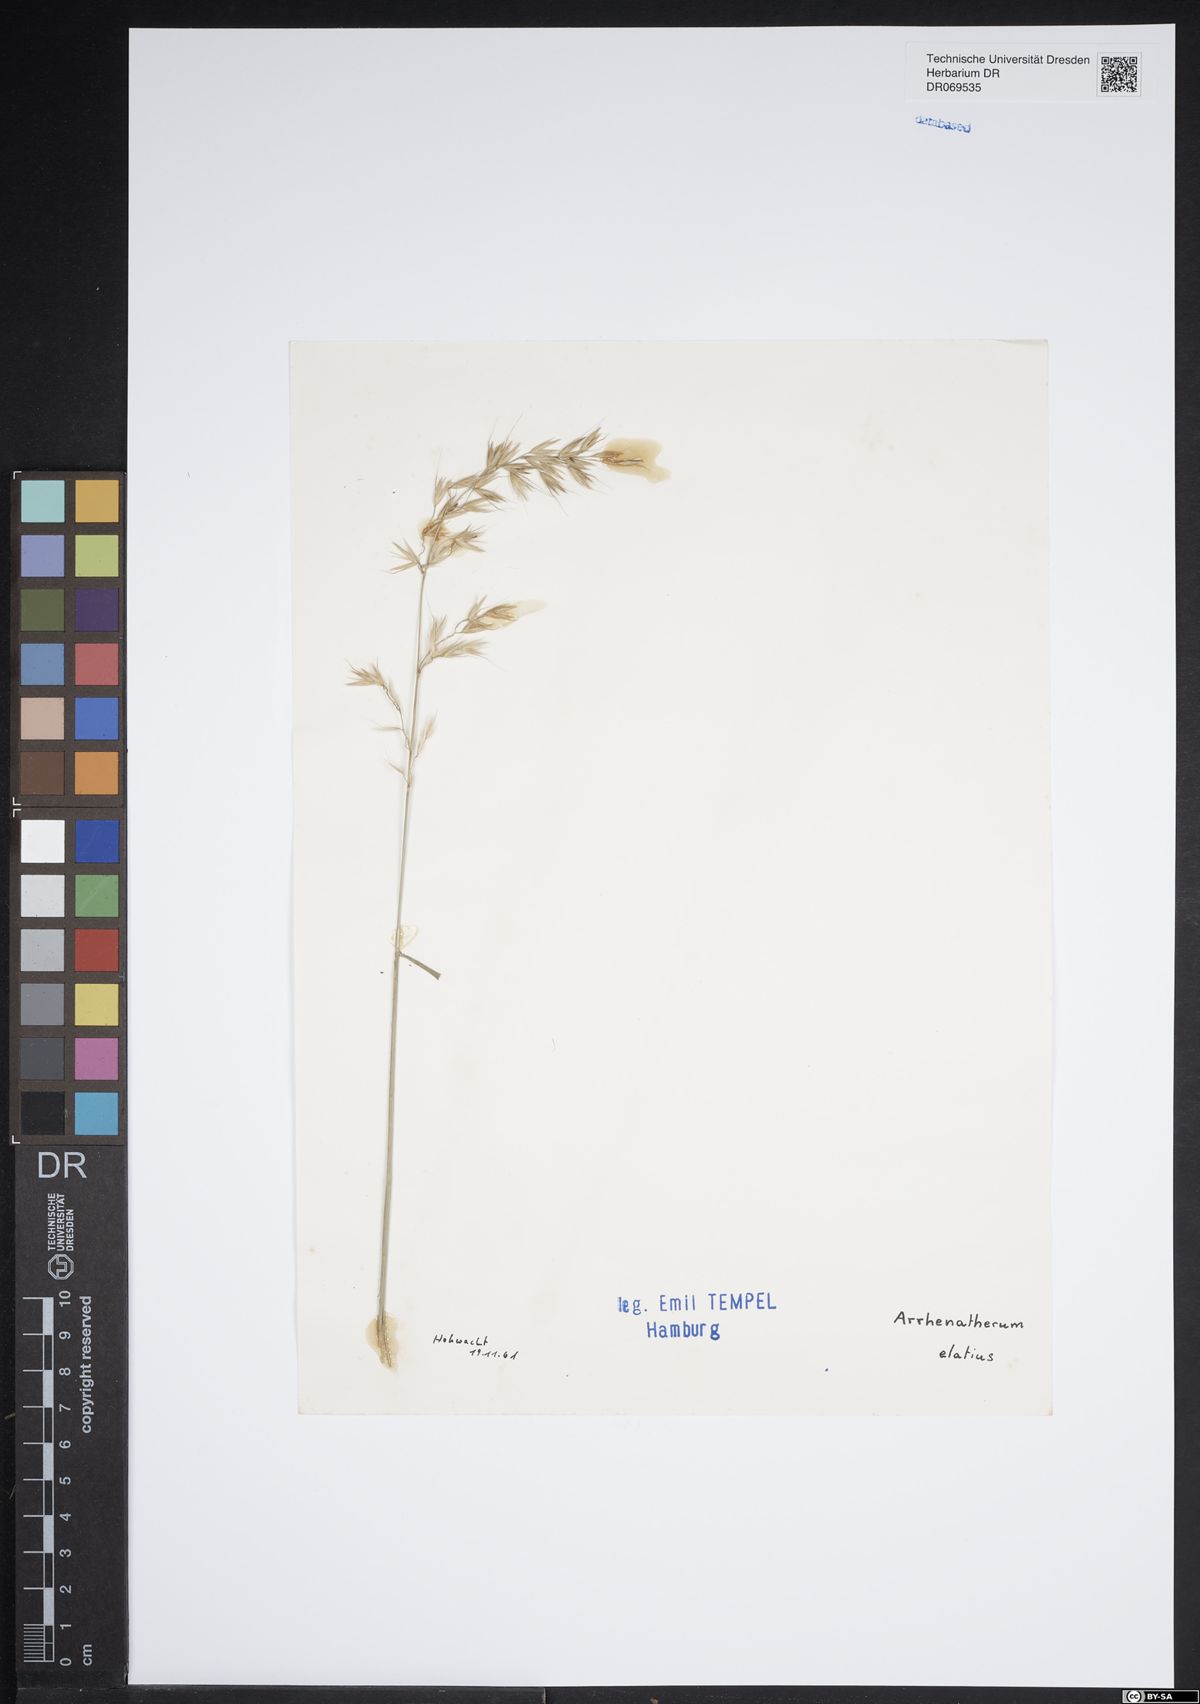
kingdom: Plantae
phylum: Tracheophyta
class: Liliopsida
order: Poales
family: Poaceae
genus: Arrhenatherum
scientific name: Arrhenatherum elatius
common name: Tall oatgrass
